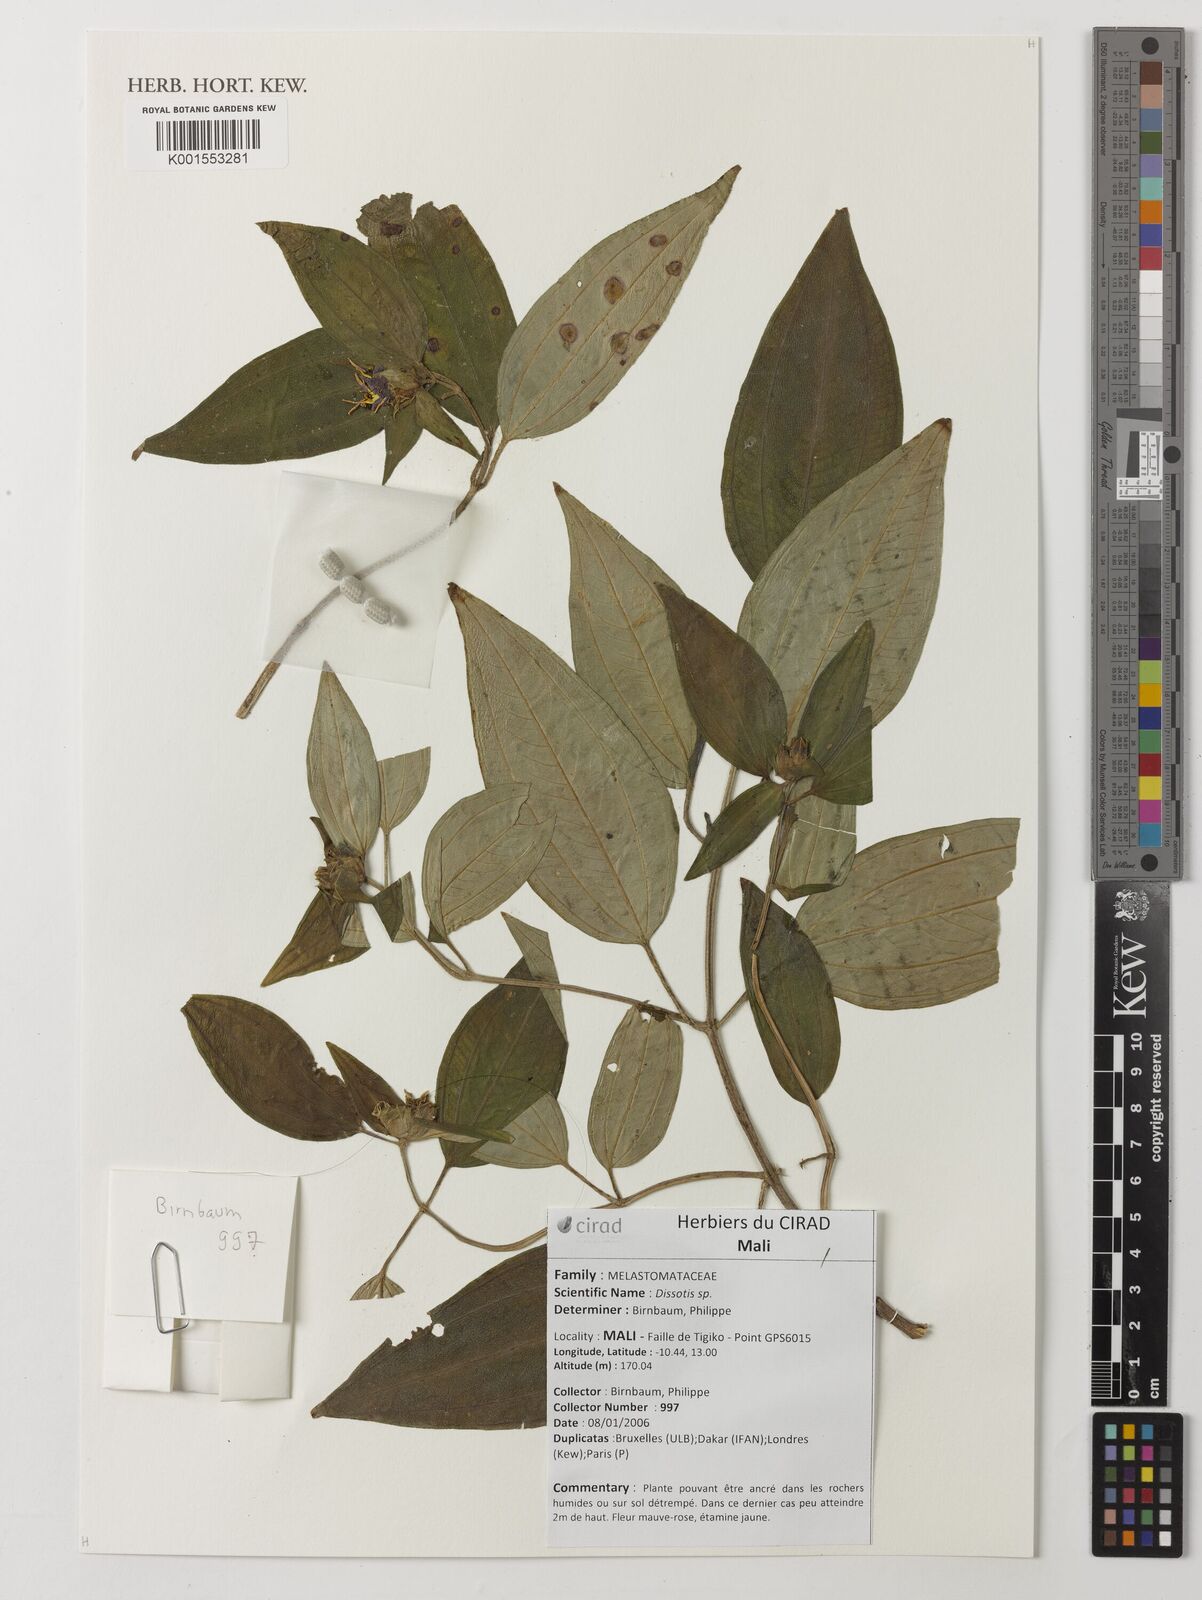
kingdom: Plantae
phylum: Tracheophyta
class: Magnoliopsida
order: Myrtales
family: Melastomataceae
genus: Dissotis
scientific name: Dissotis
